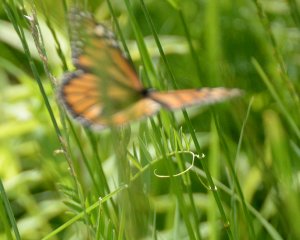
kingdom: Animalia
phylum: Arthropoda
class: Insecta
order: Lepidoptera
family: Nymphalidae
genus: Danaus
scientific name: Danaus plexippus
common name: Monarch
